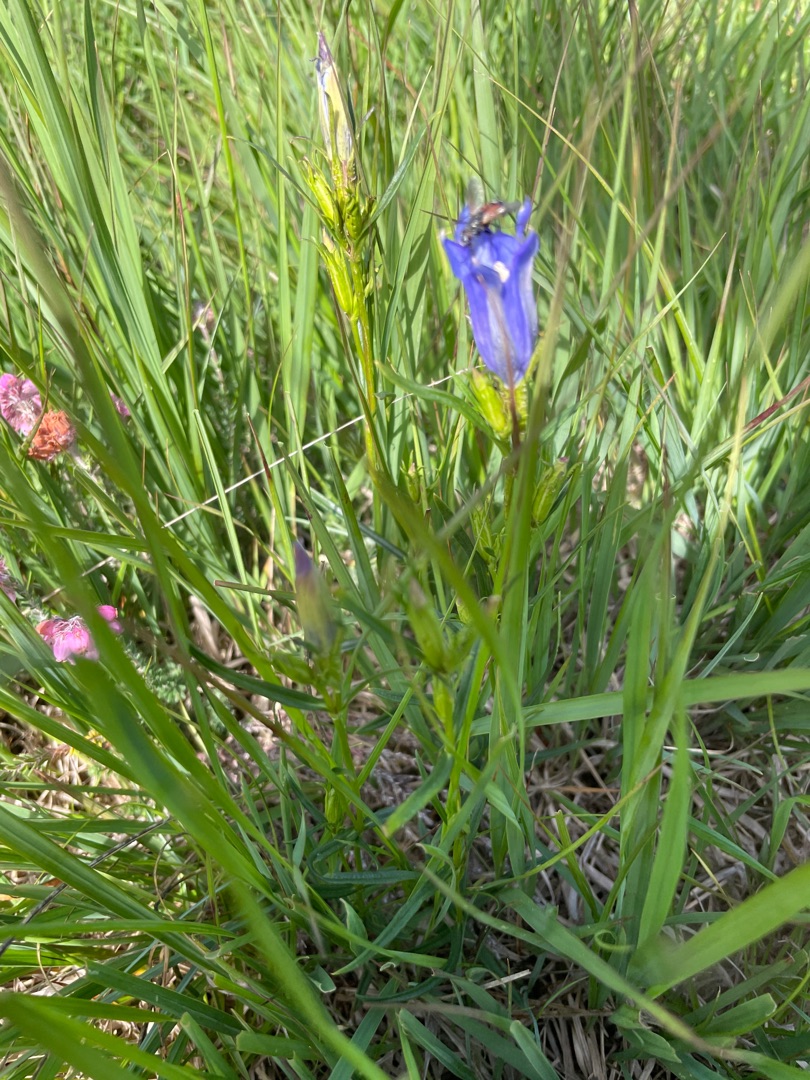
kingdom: Plantae
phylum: Tracheophyta
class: Magnoliopsida
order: Gentianales
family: Gentianaceae
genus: Gentiana
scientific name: Gentiana pneumonanthe
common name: Klokke-ensian
